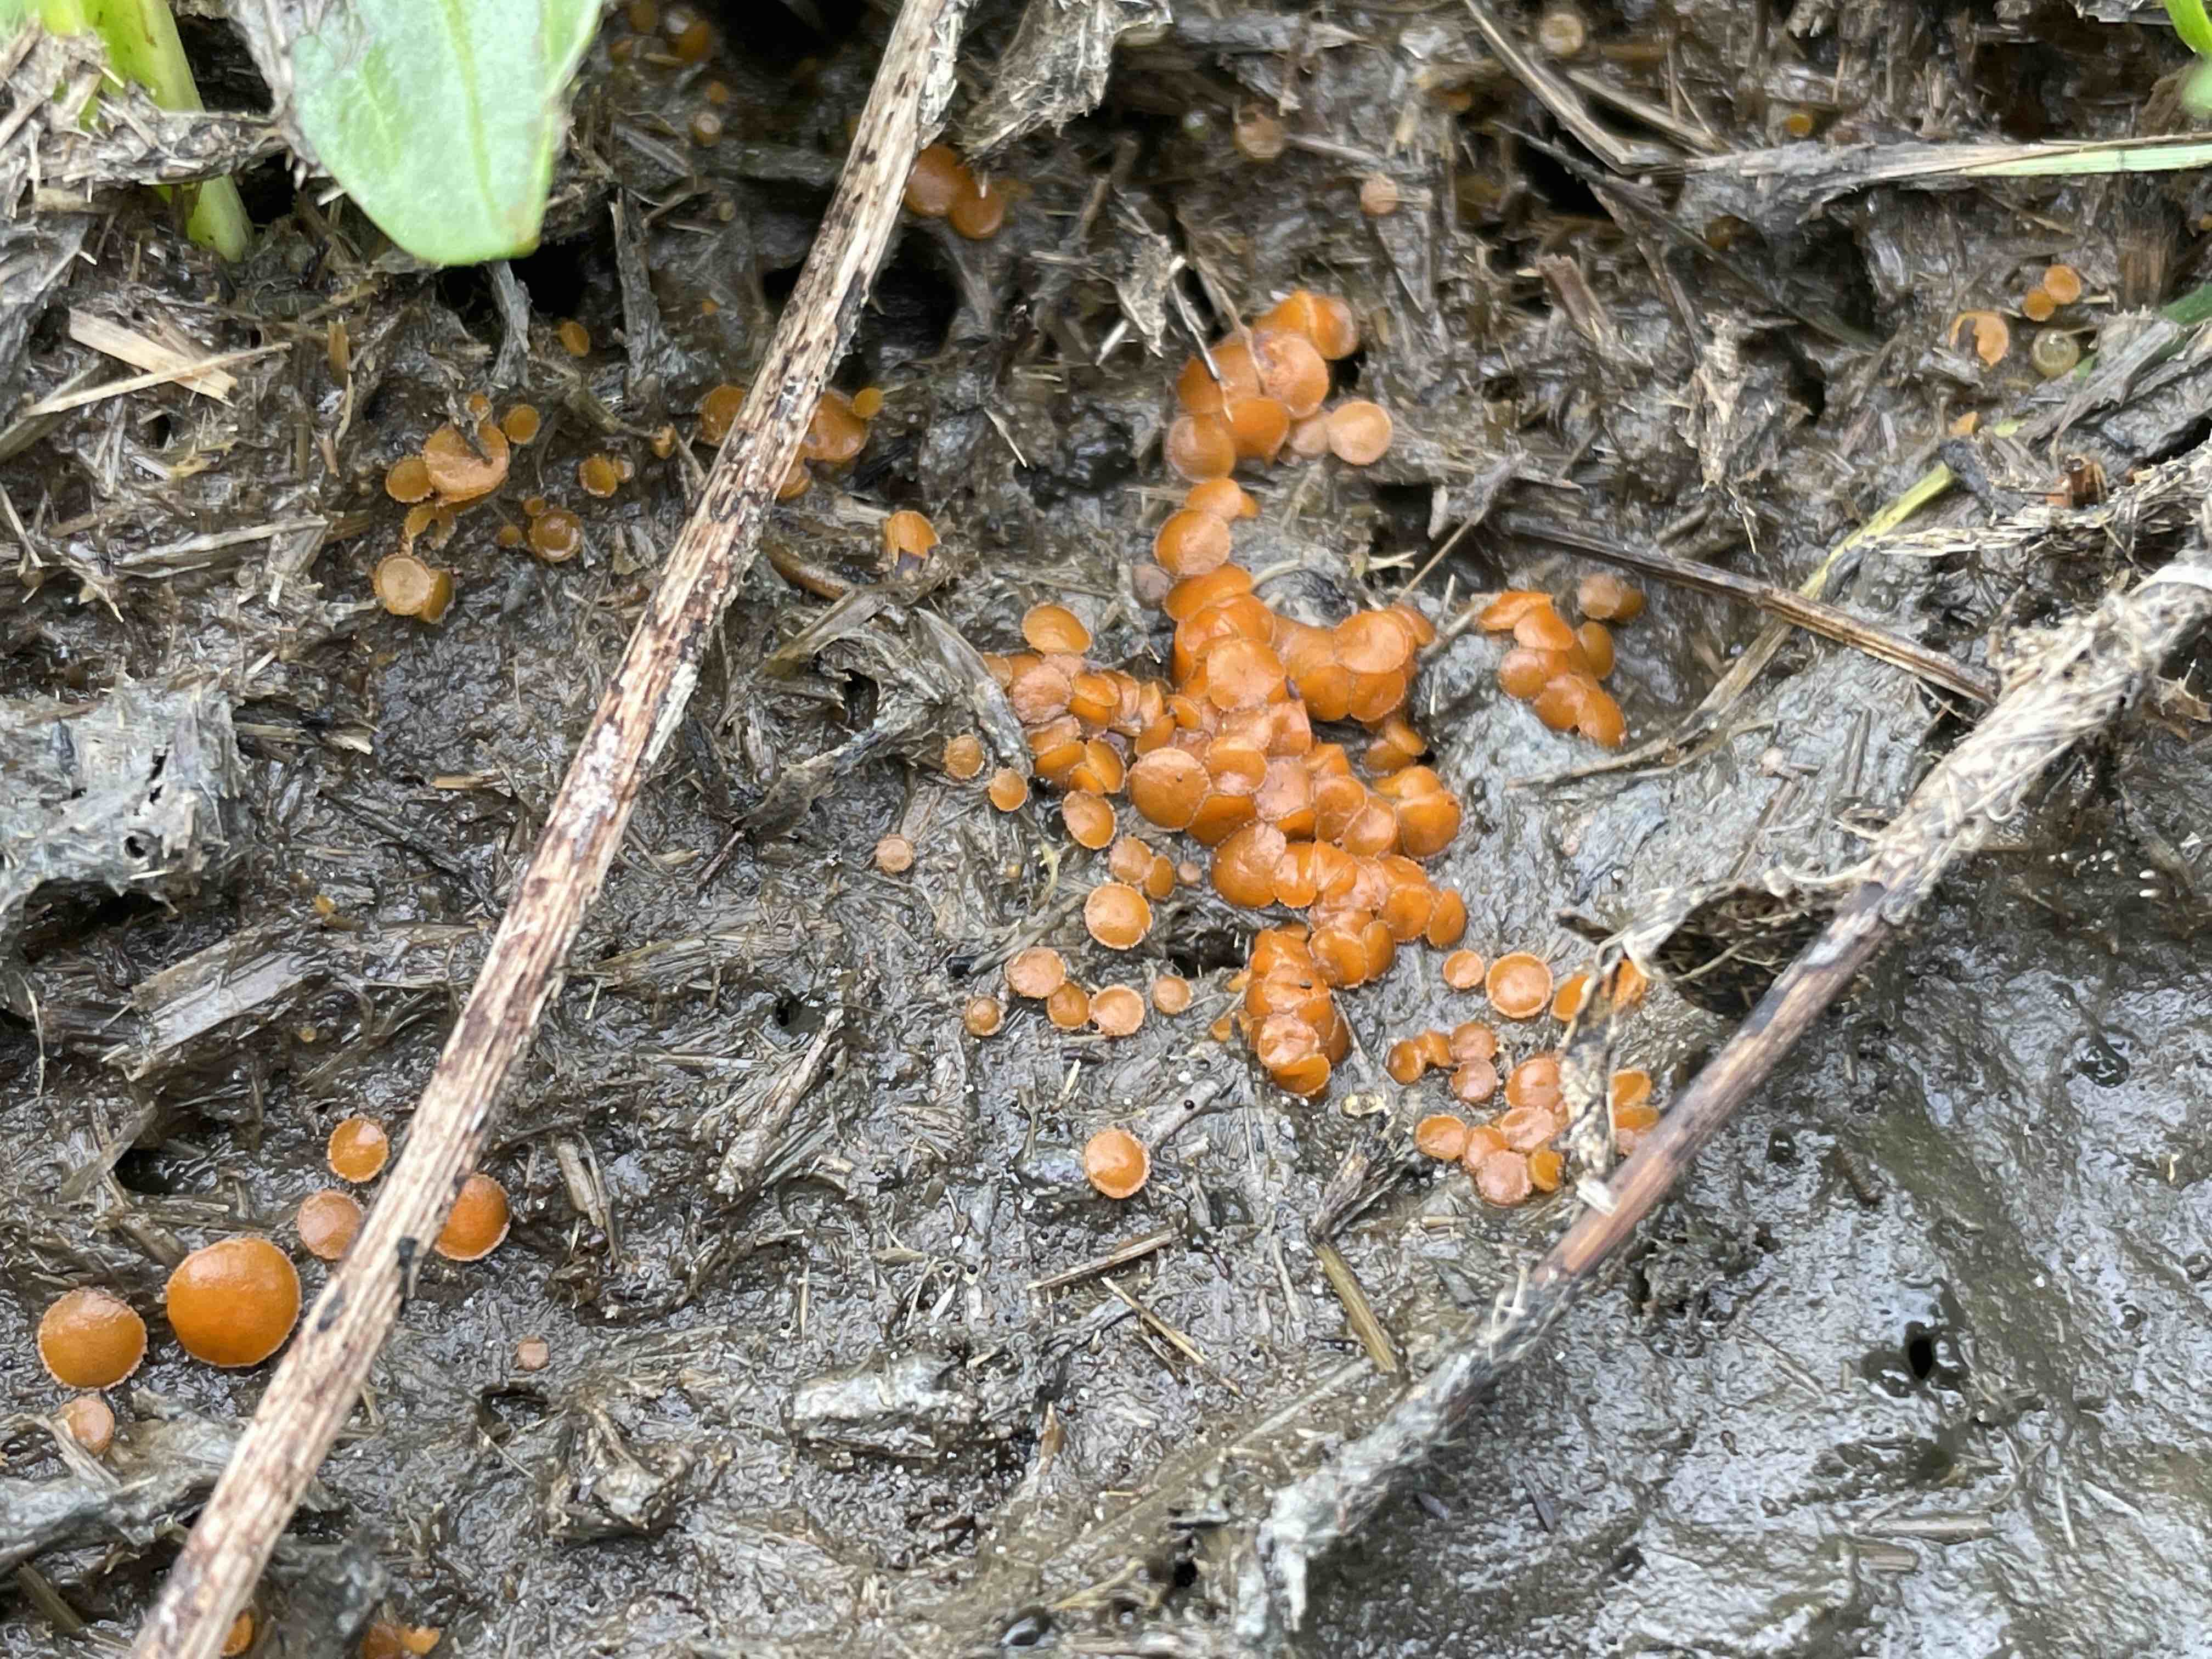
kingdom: Fungi
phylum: Ascomycota
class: Pezizomycetes
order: Pezizales
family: Pyronemataceae
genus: Cheilymenia
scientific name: Cheilymenia granulata
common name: møgbæger
